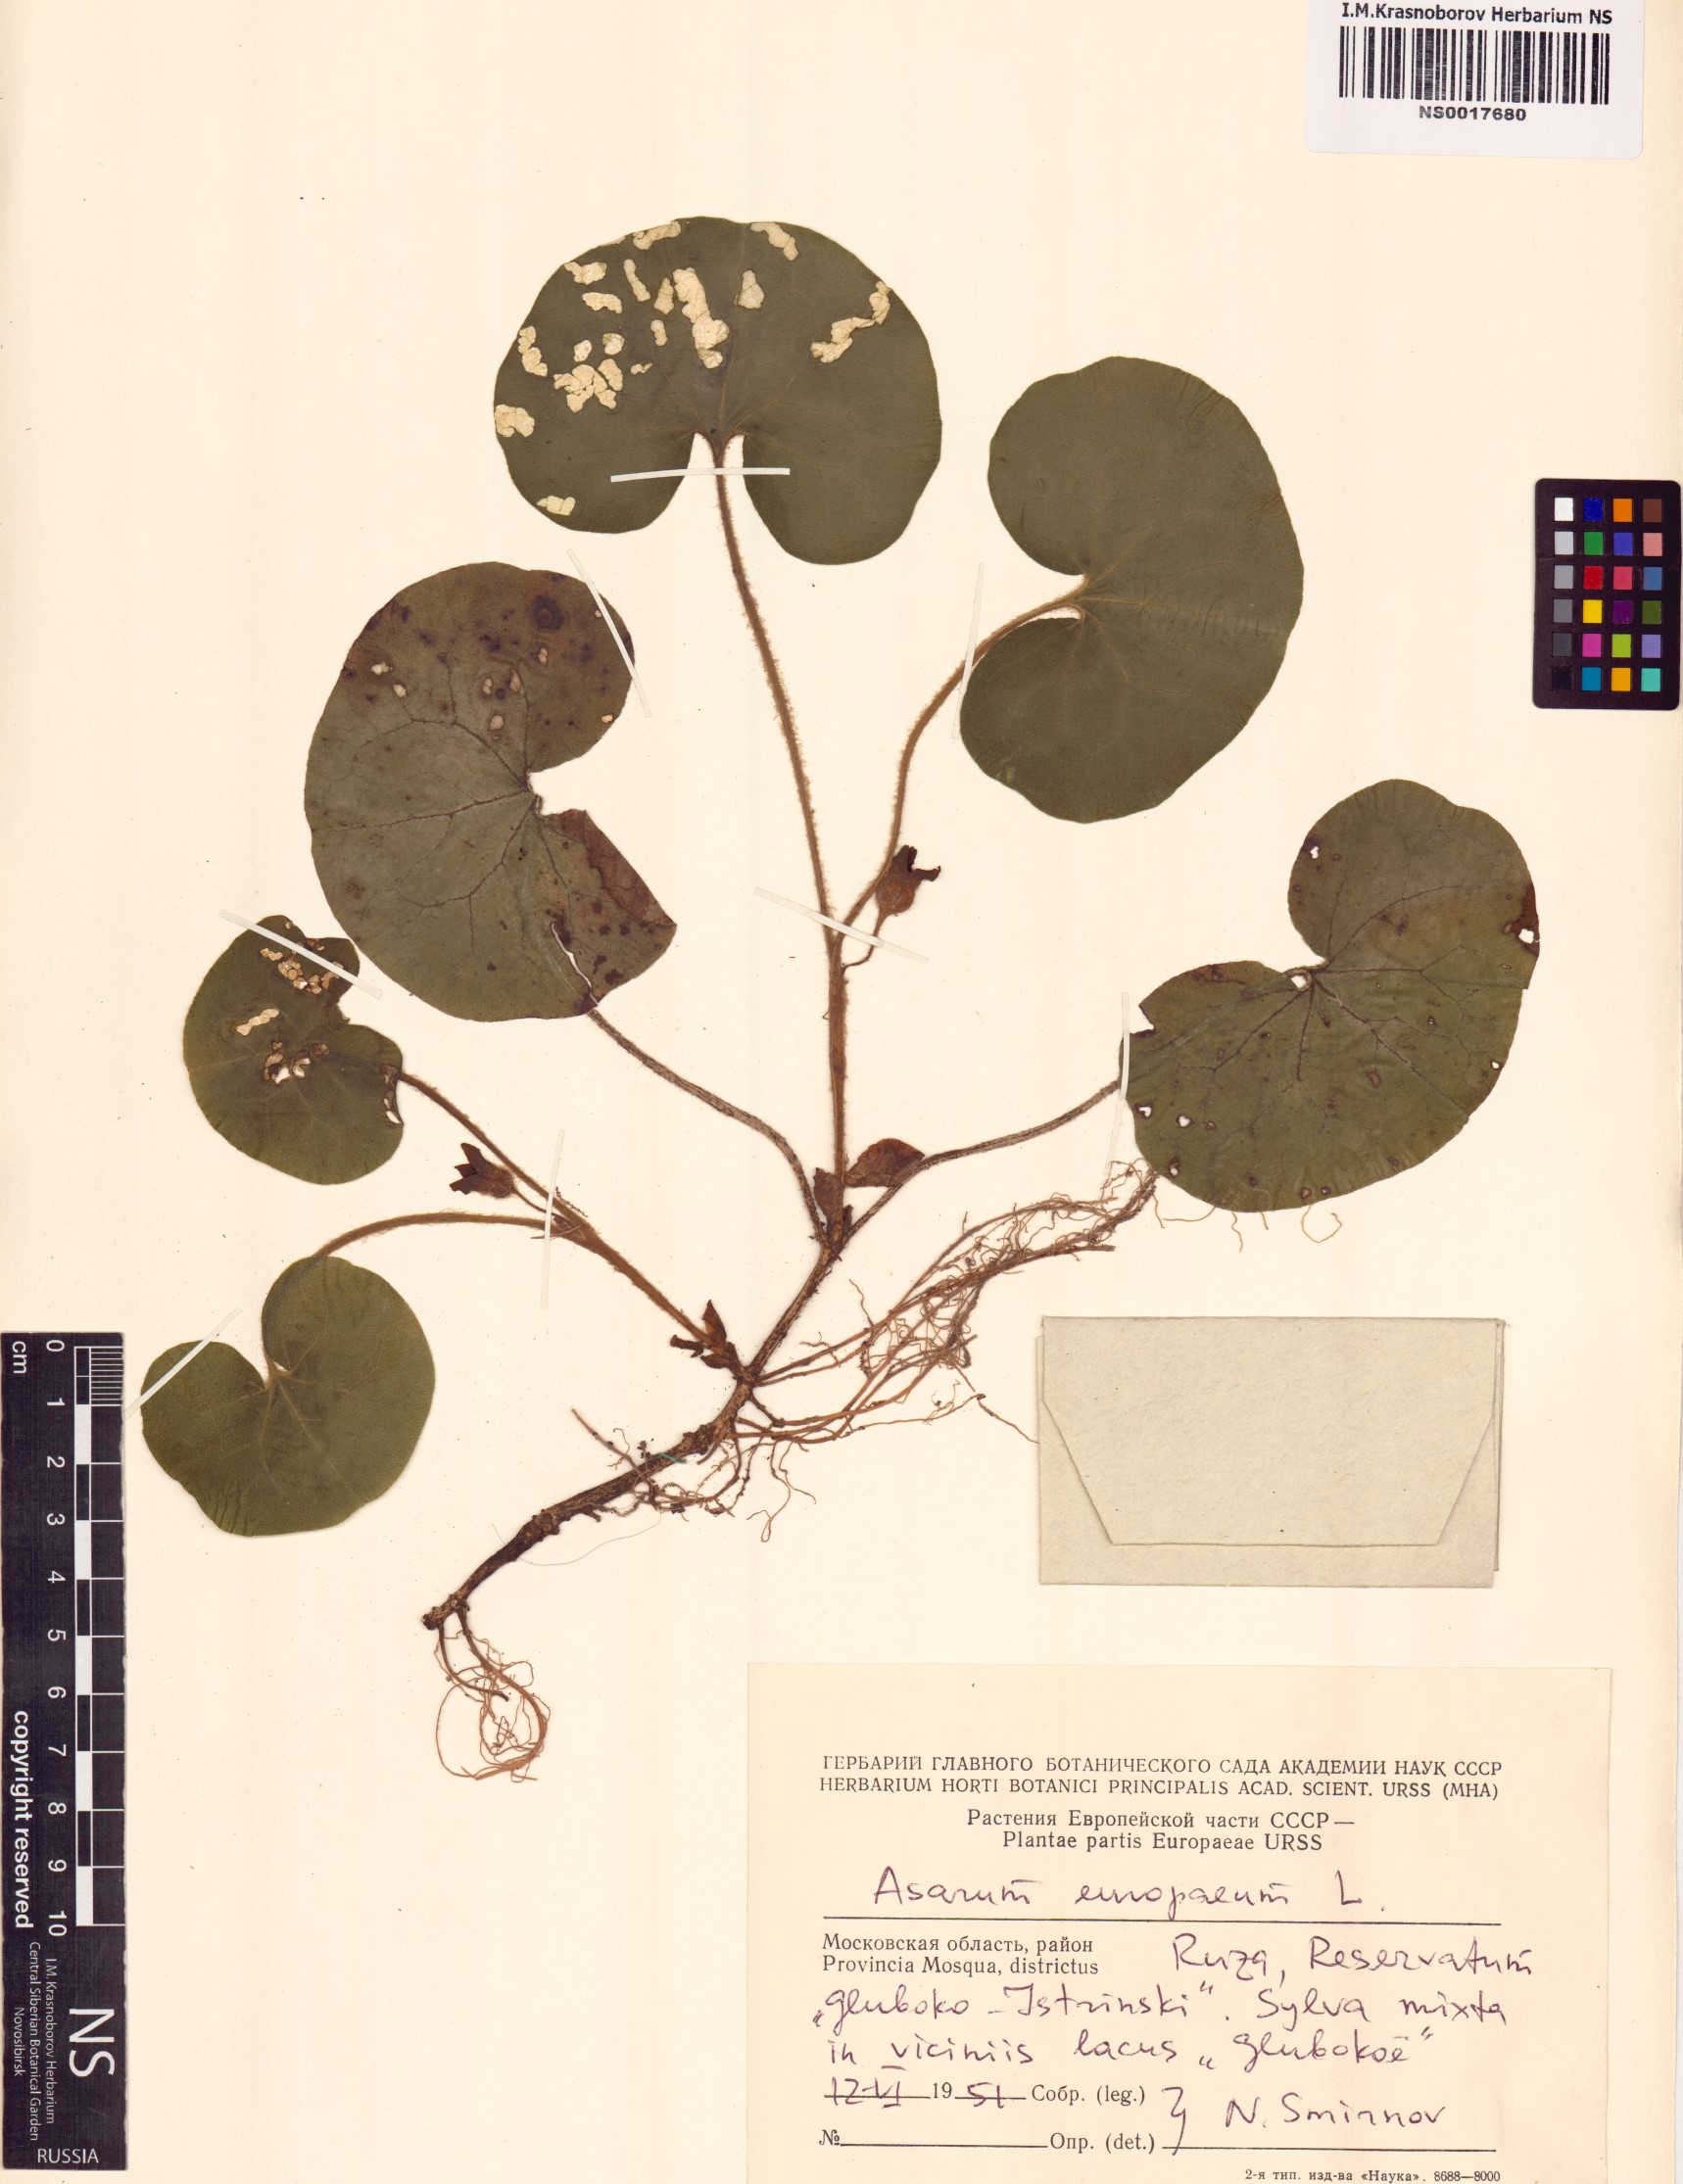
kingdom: Plantae
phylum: Tracheophyta
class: Magnoliopsida
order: Piperales
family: Aristolochiaceae
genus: Asarum
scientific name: Asarum europaeum
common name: Asarabacca
